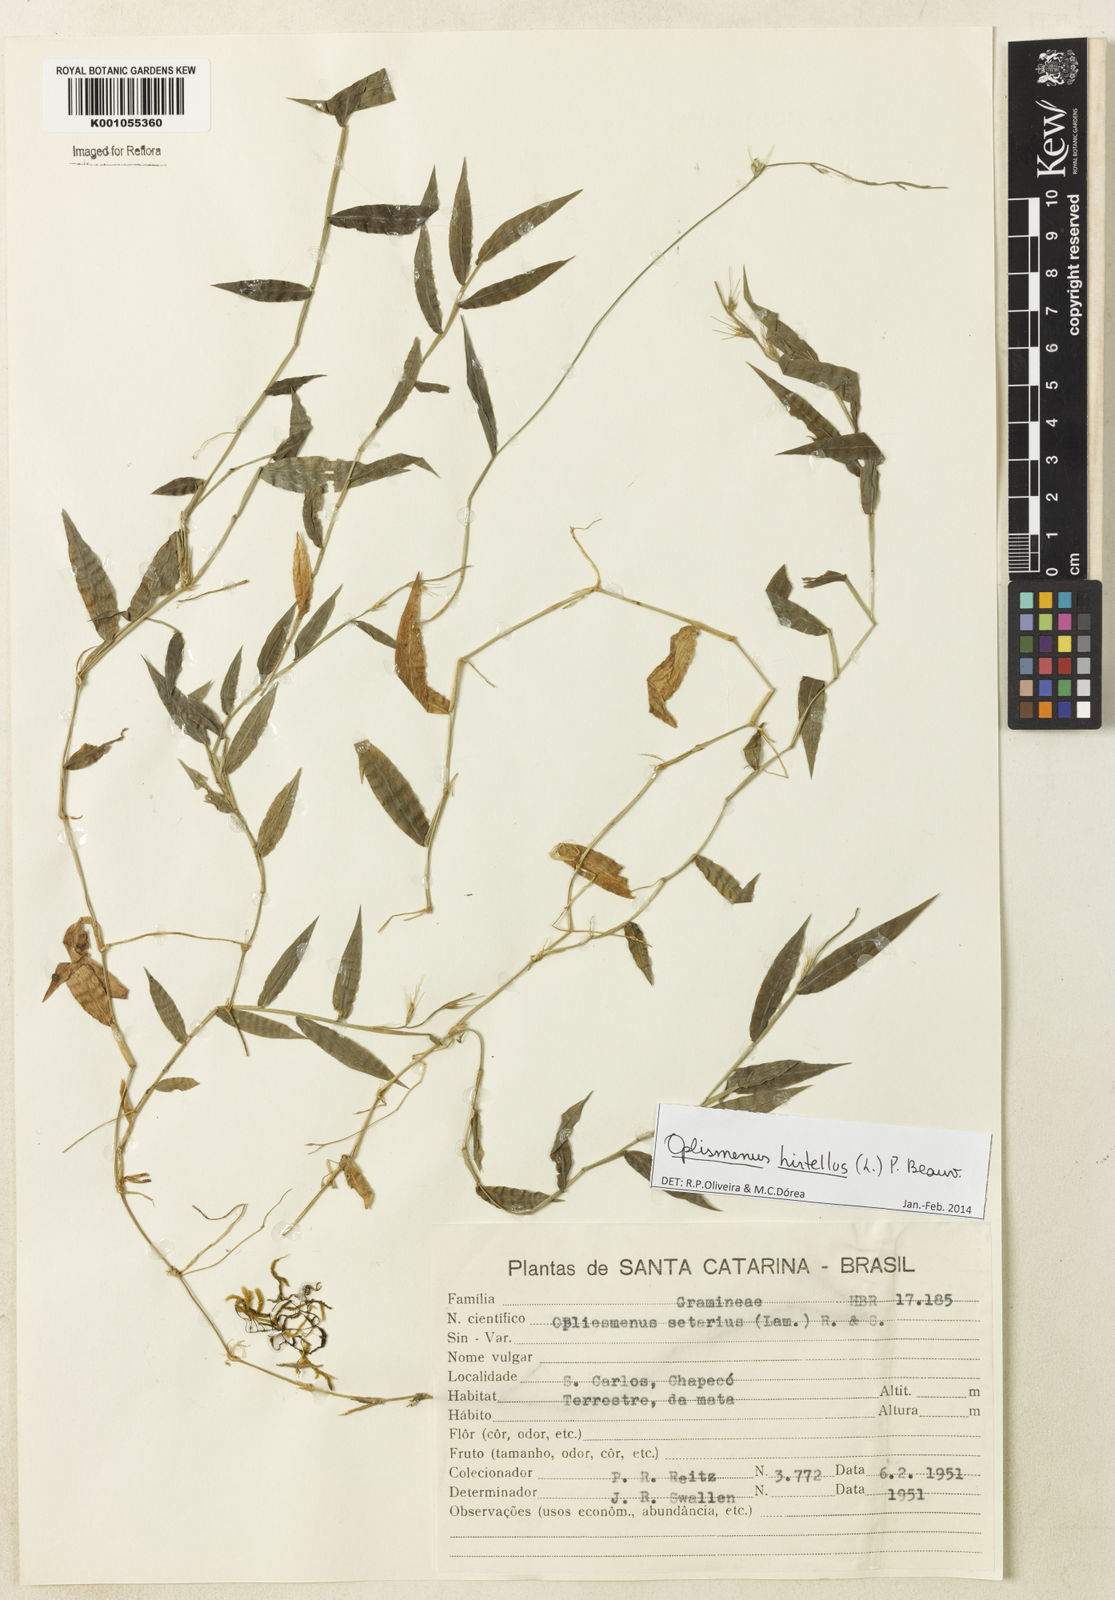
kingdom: Plantae
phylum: Tracheophyta
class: Liliopsida
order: Poales
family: Poaceae
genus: Oplismenus
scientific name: Oplismenus hirtellus
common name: Basketgrass
